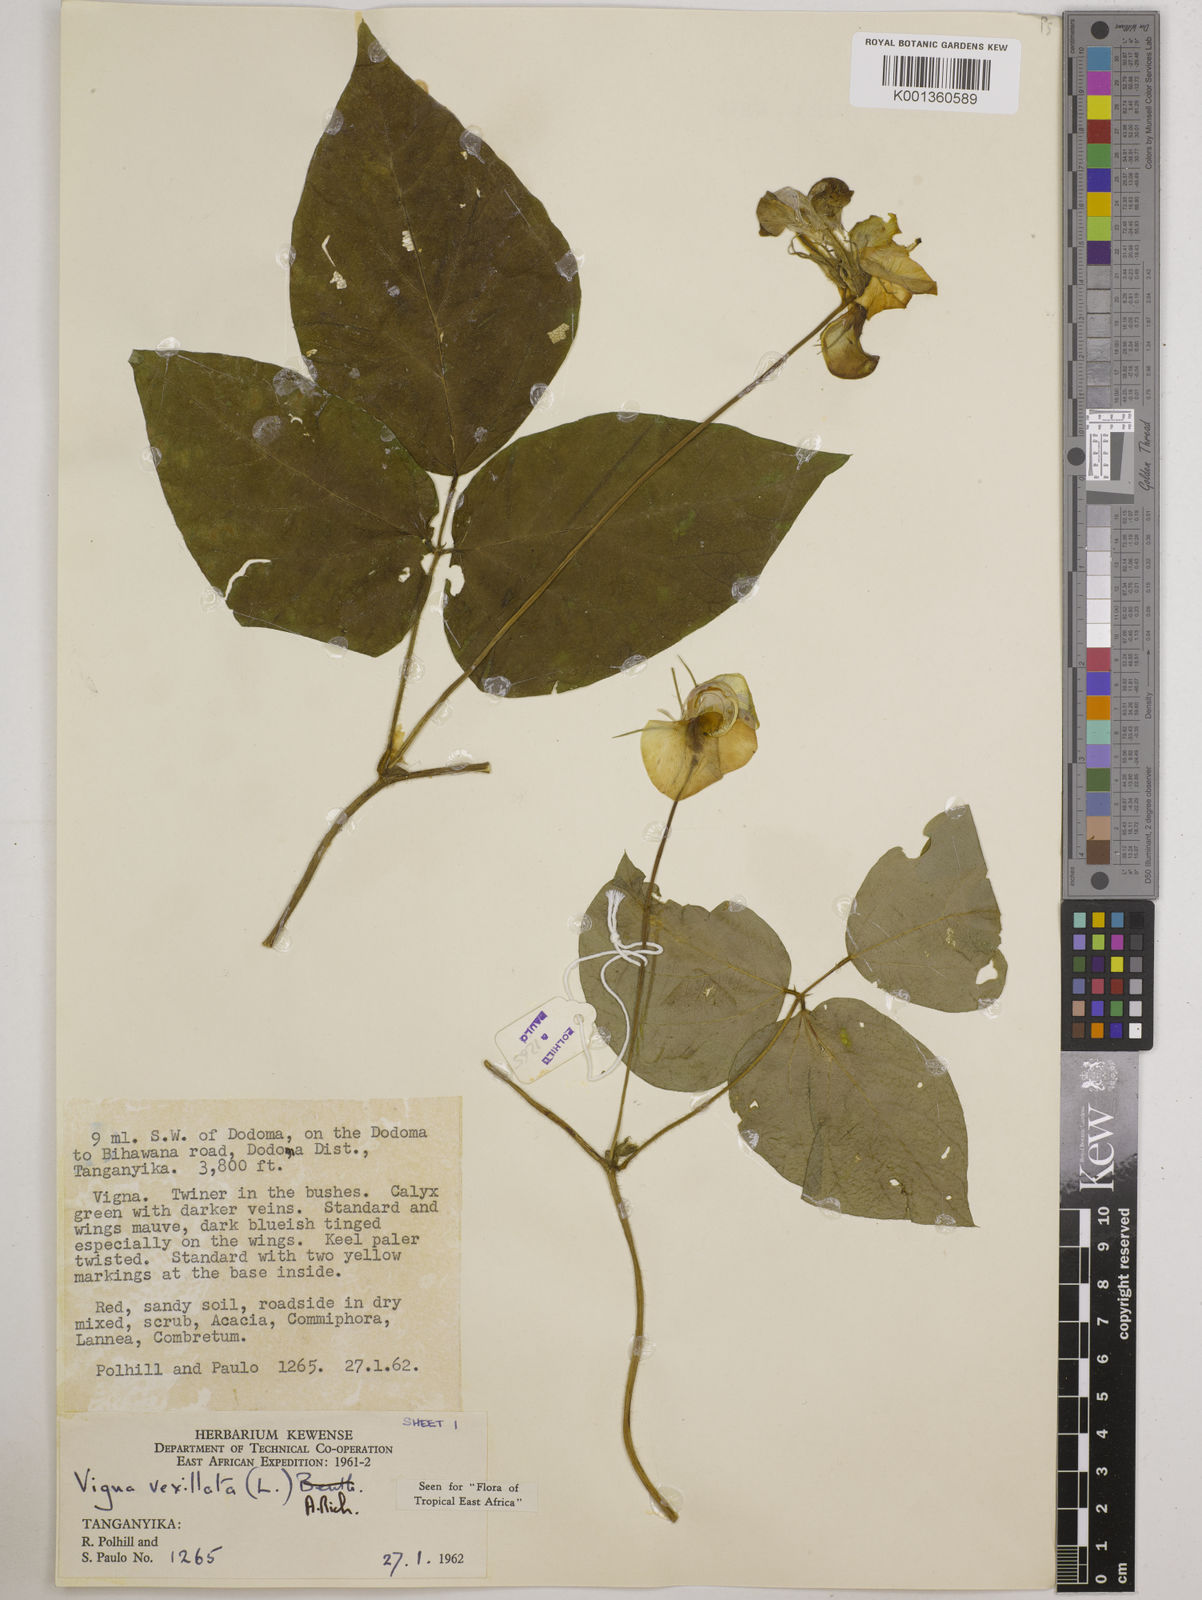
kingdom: Plantae
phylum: Tracheophyta
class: Magnoliopsida
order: Fabales
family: Fabaceae
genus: Vigna
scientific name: Vigna vexillata
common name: Zombi pea
